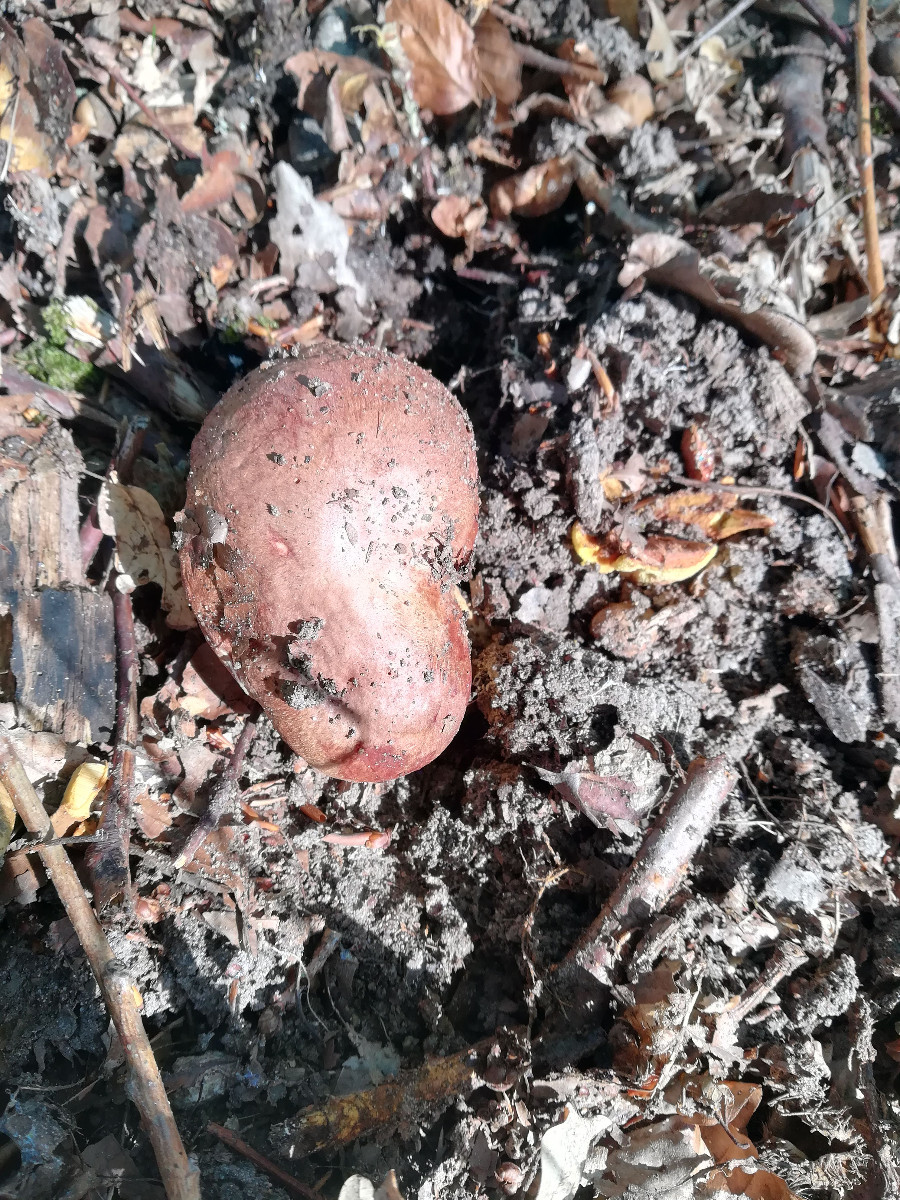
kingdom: Fungi
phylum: Basidiomycota
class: Agaricomycetes
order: Boletales
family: Boletaceae
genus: Butyriboletus
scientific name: Butyriboletus appendiculatus
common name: tenstokket rørhat
